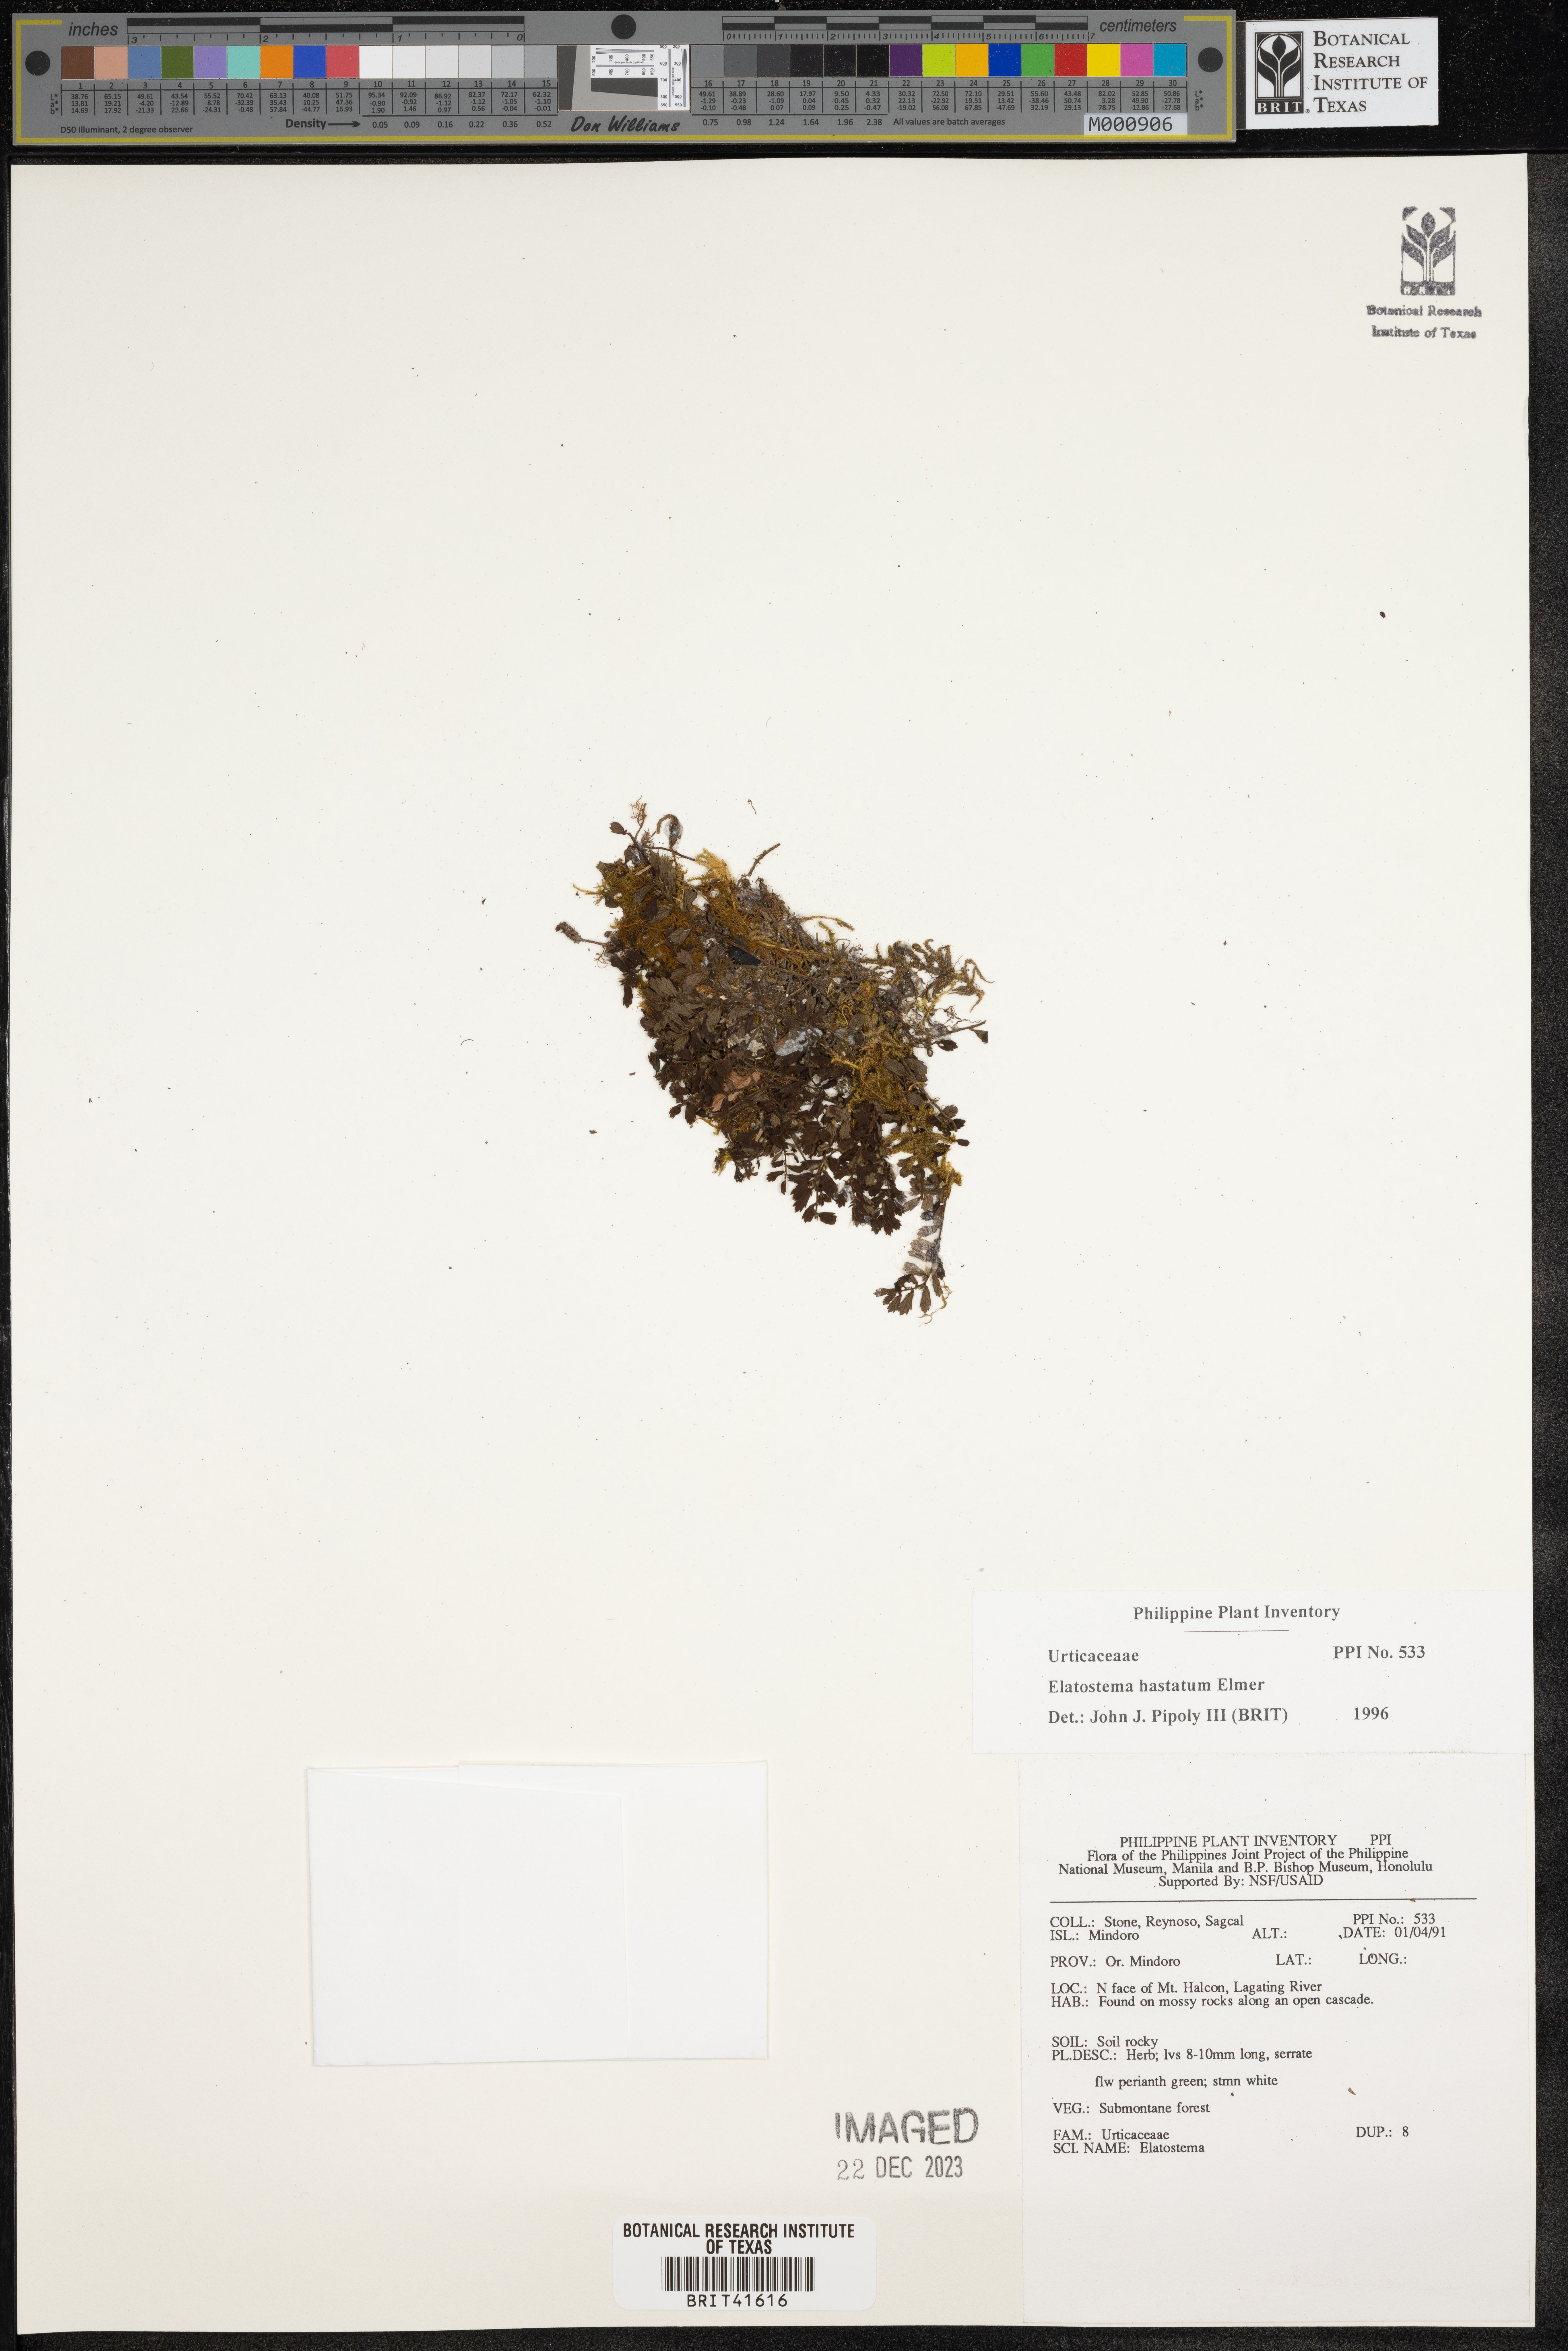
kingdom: Plantae
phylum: Tracheophyta
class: Magnoliopsida
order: Rosales
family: Urticaceae
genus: Elatostema
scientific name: Elatostema hastatum
